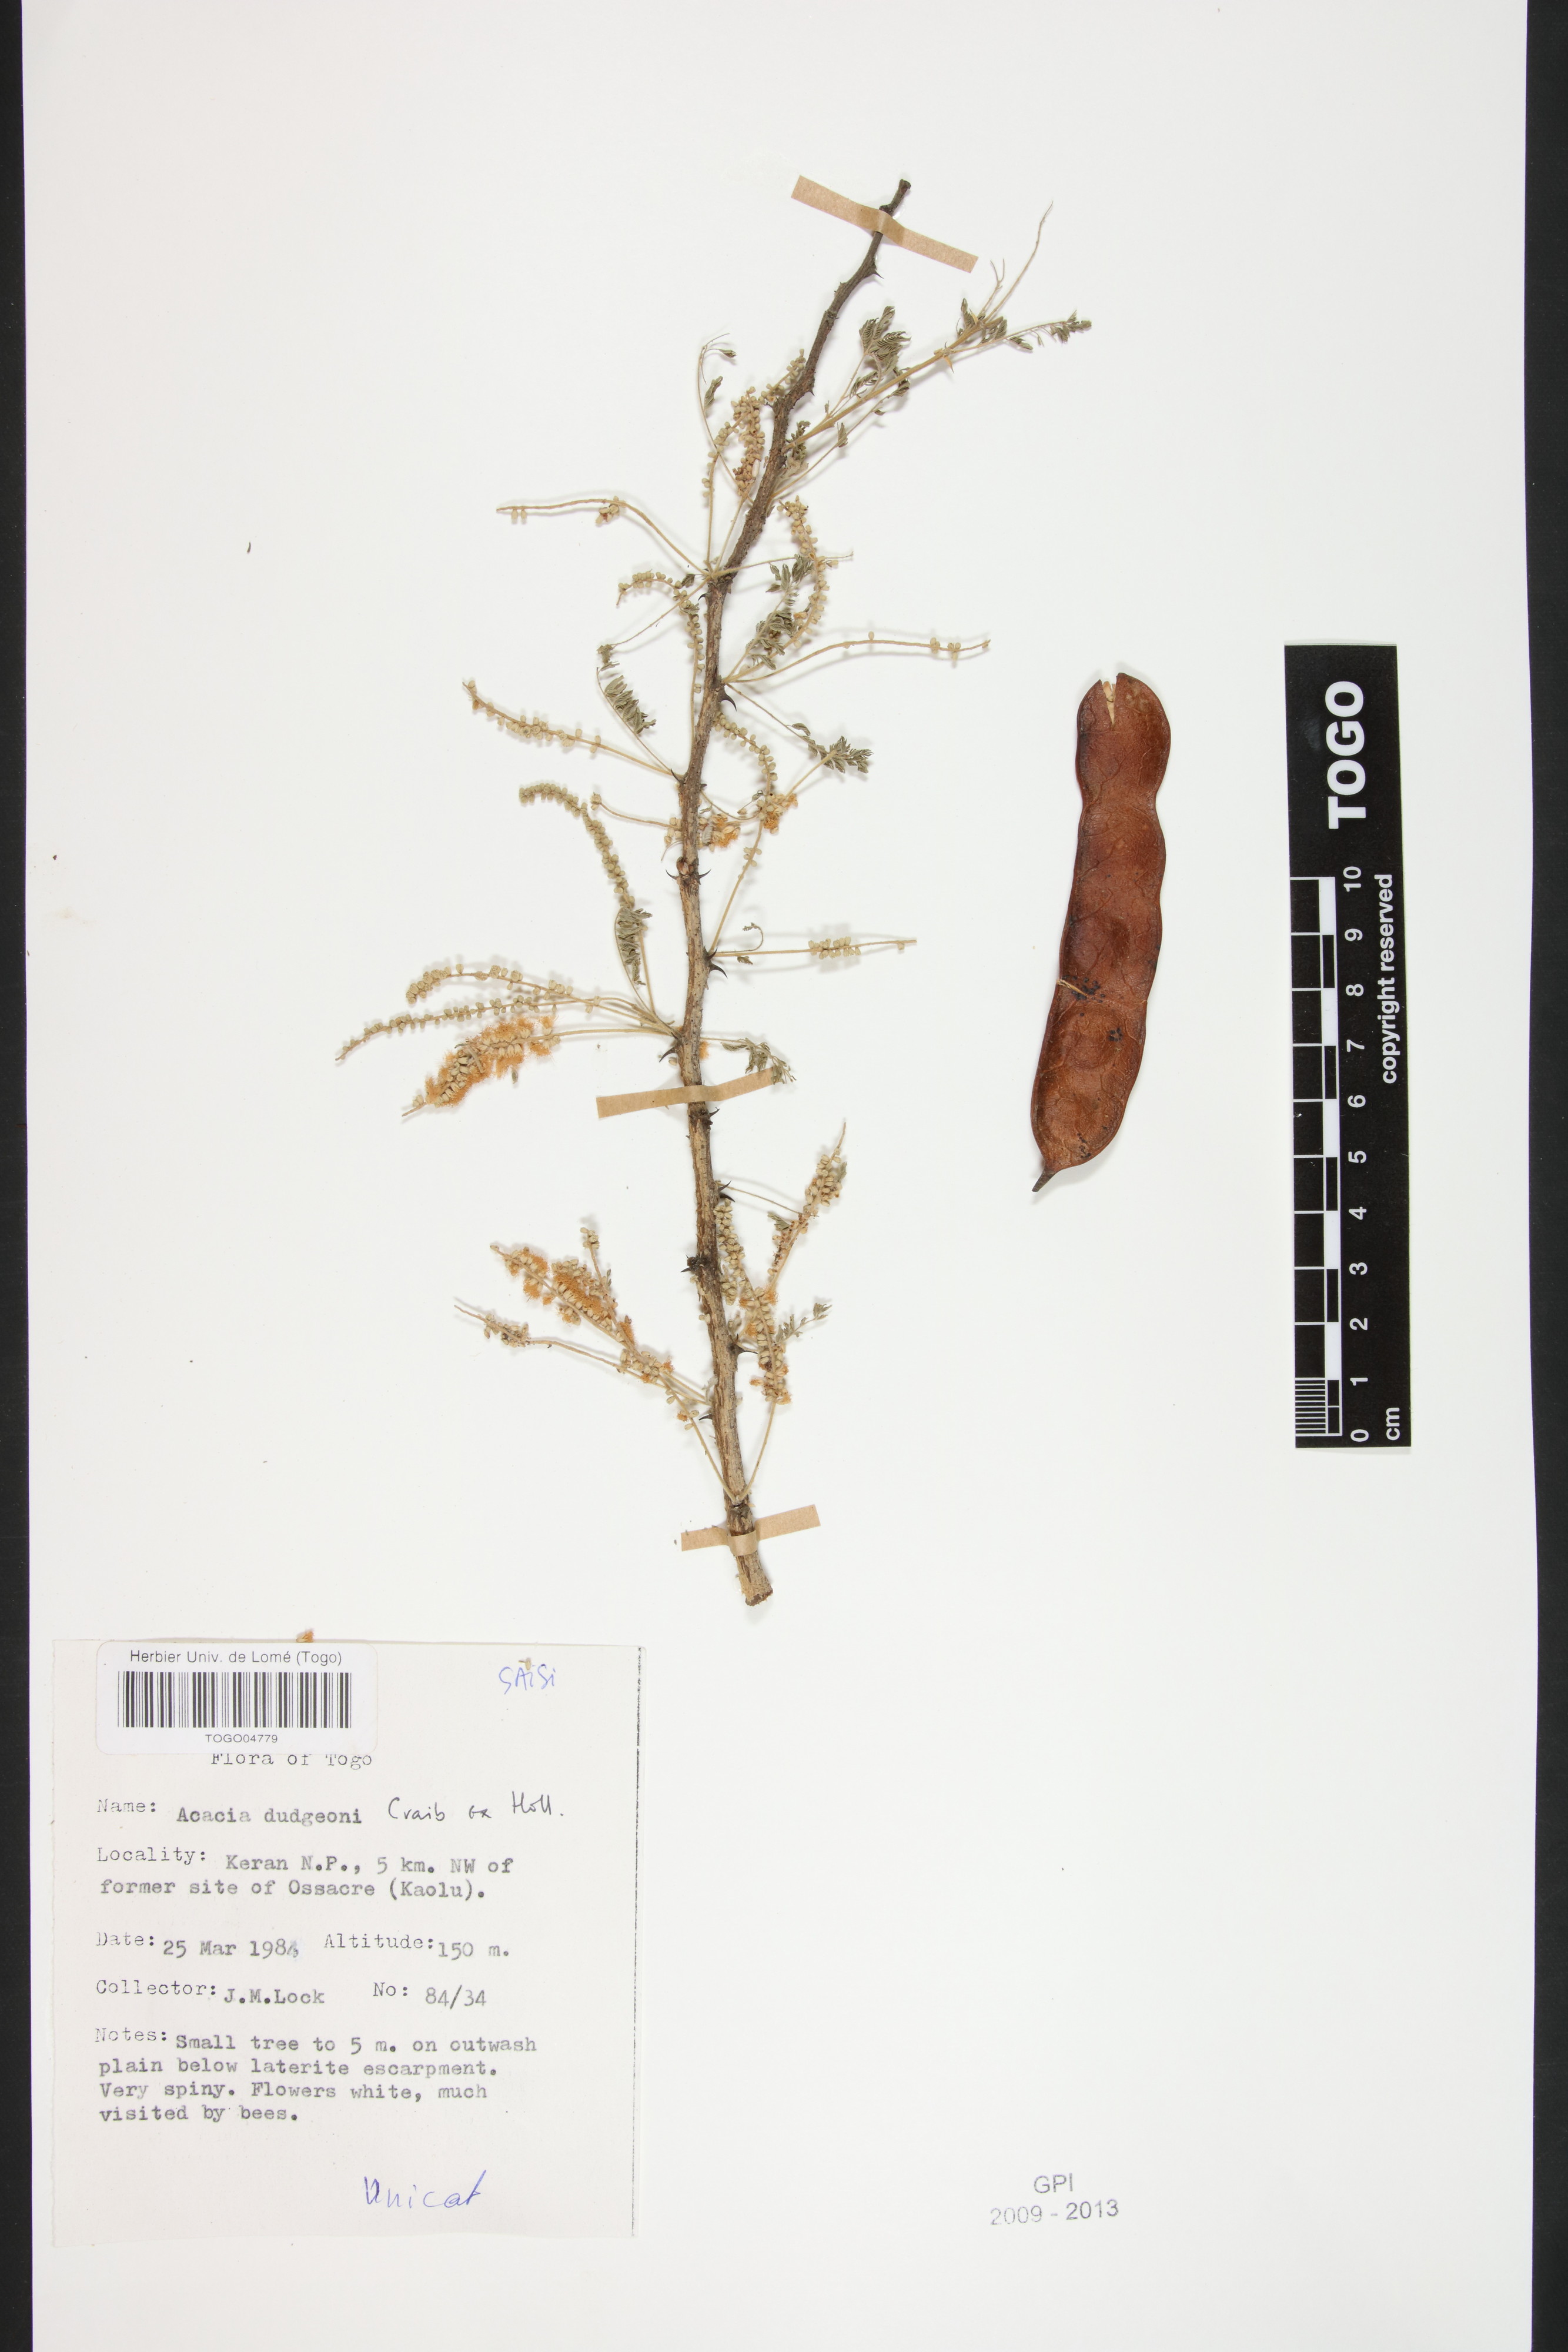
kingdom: Plantae
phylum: Tracheophyta
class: Magnoliopsida
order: Fabales
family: Fabaceae
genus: Senegalia
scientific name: Senegalia dudgeonii
